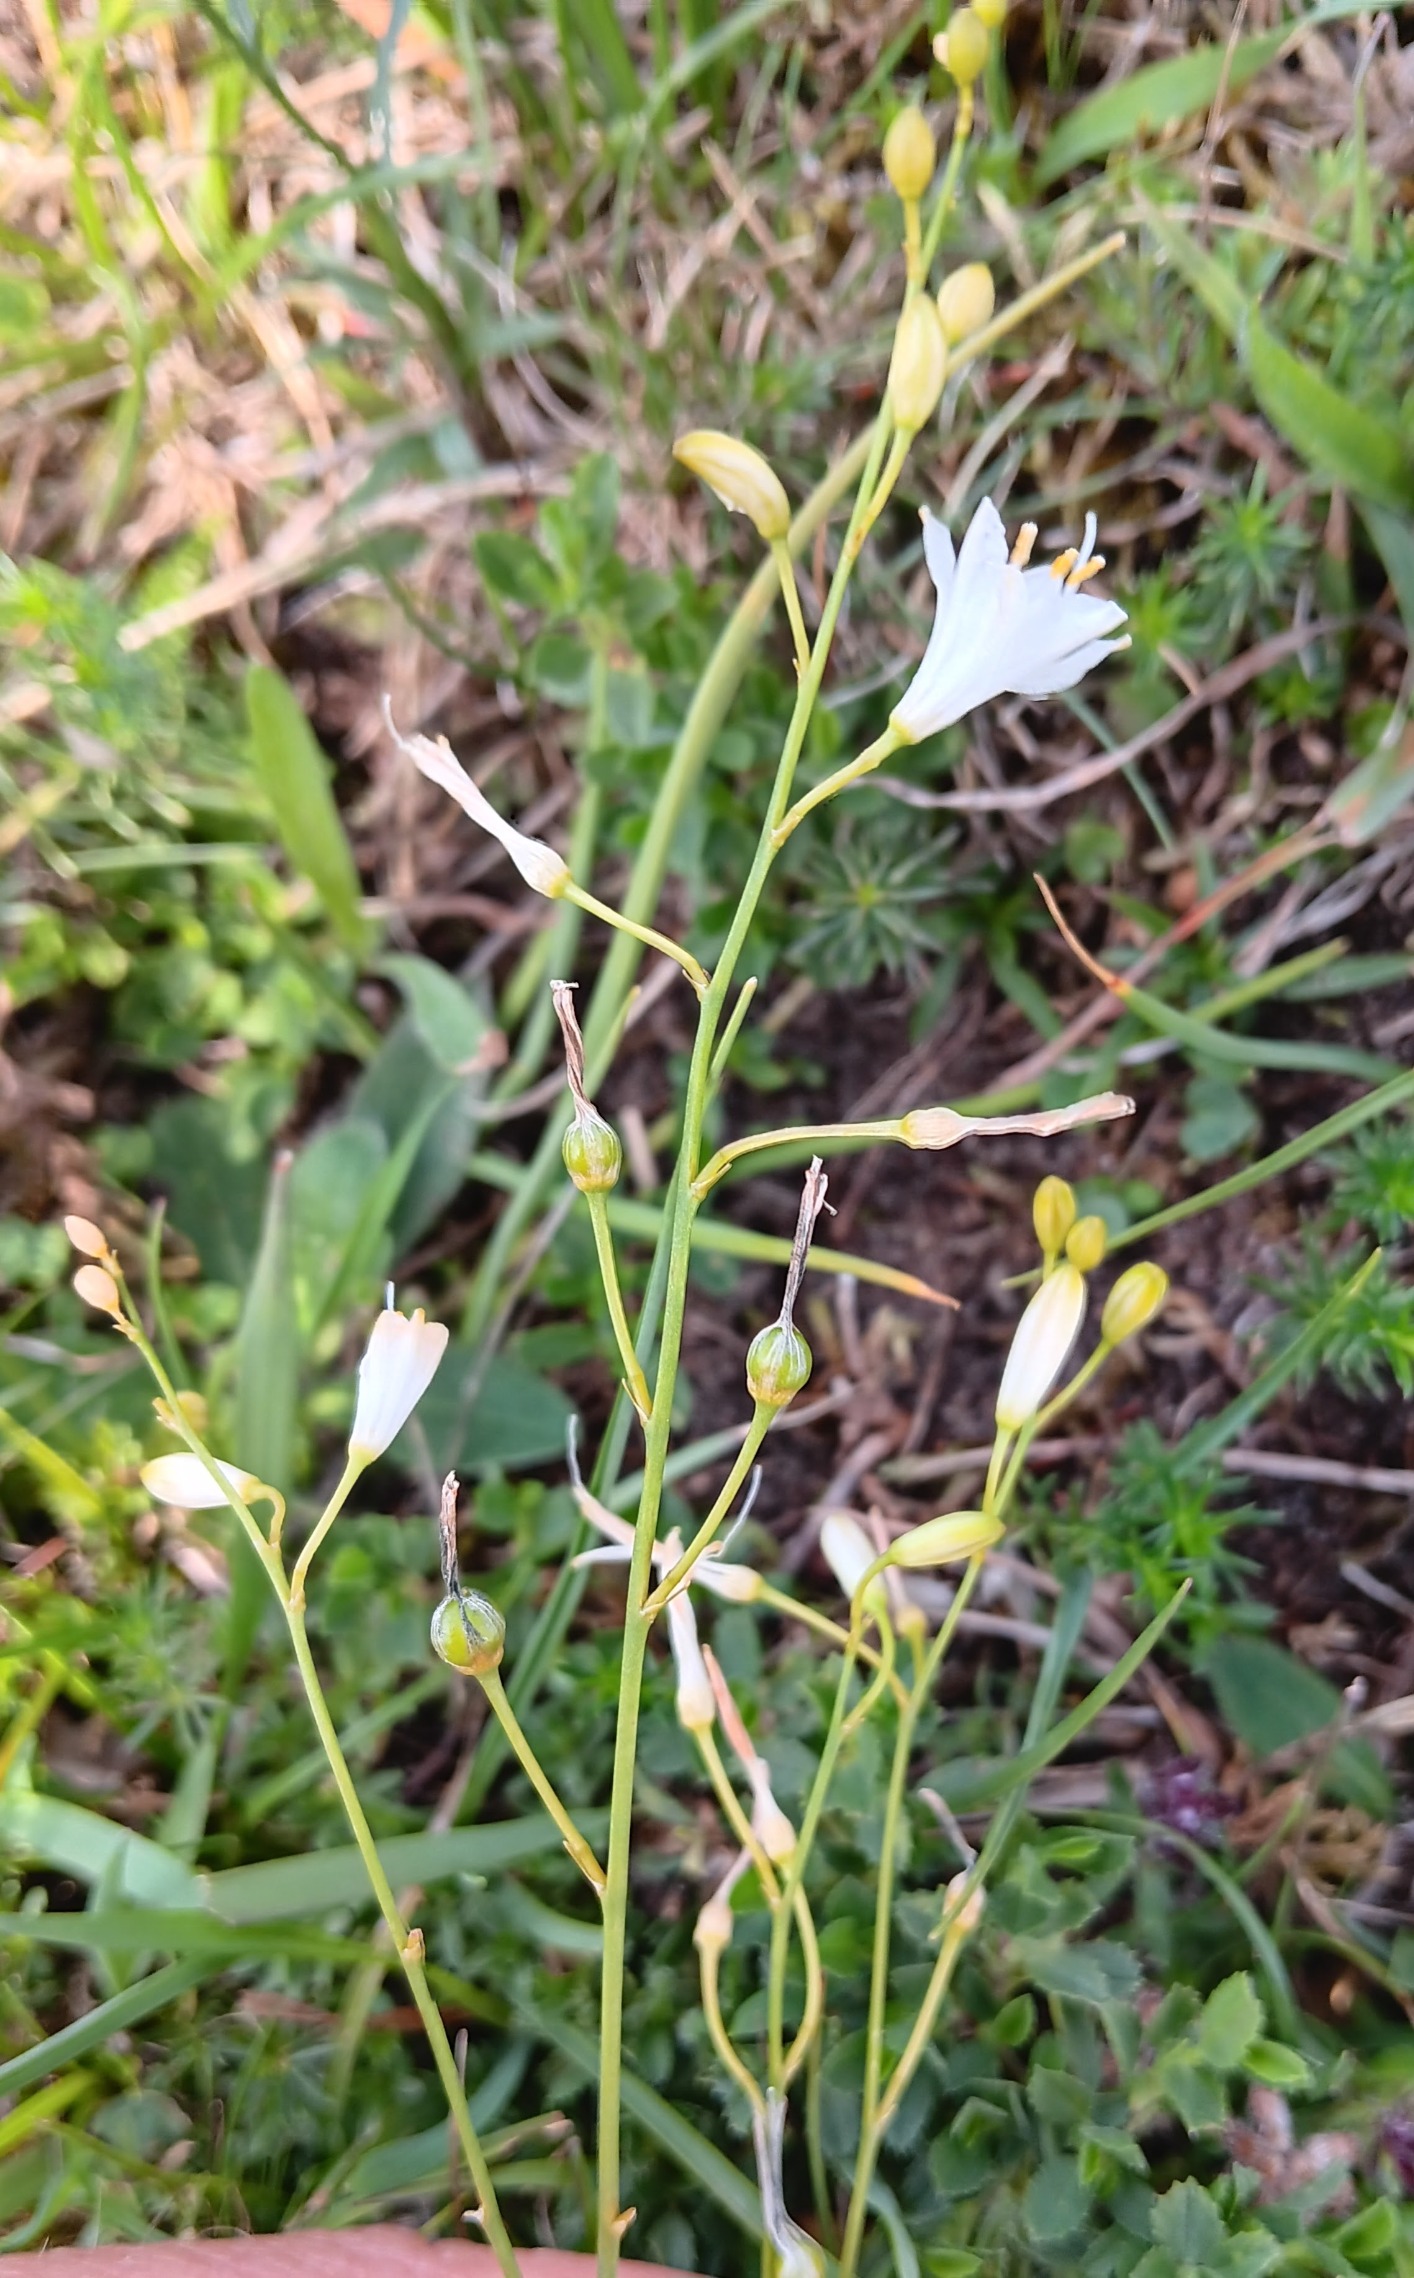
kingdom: Plantae
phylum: Tracheophyta
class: Liliopsida
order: Asparagales
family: Asparagaceae
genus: Anthericum
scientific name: Anthericum ramosum
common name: Grenet edderkopurt
